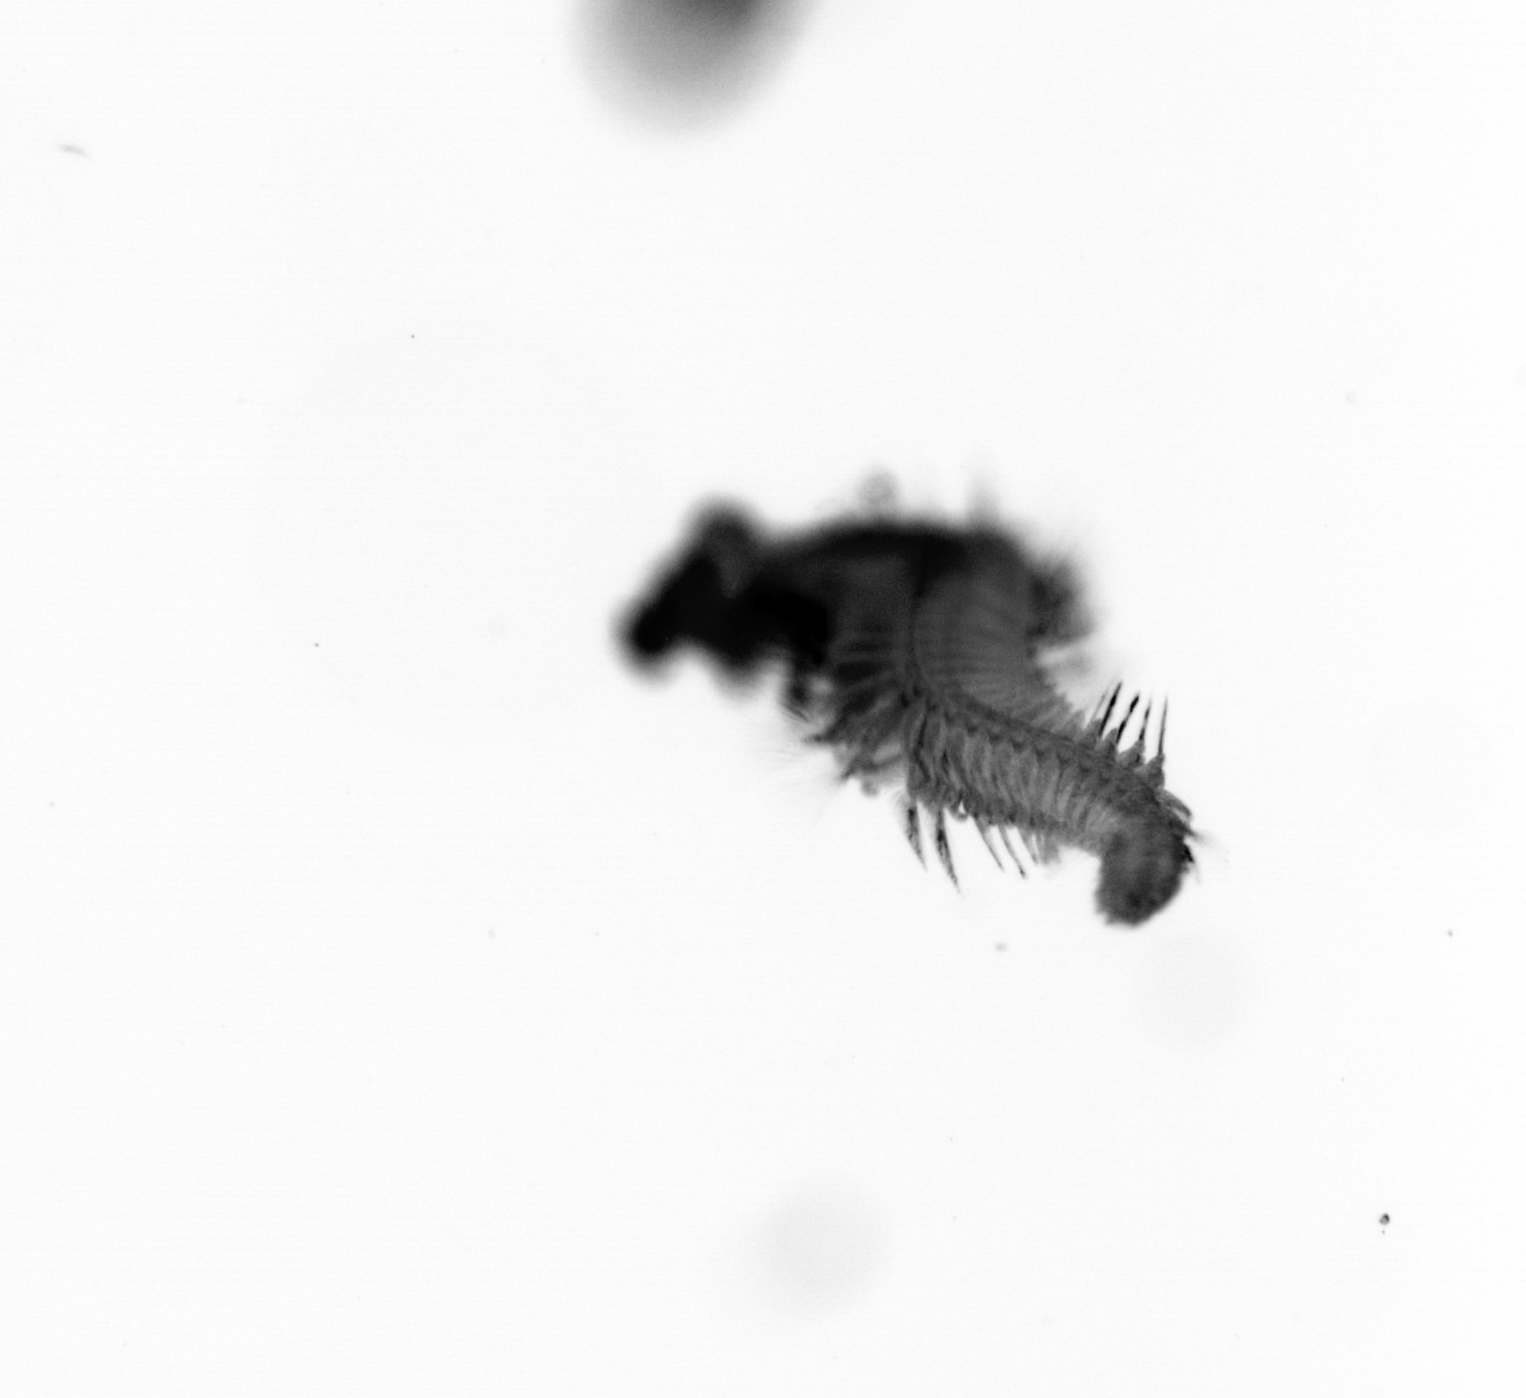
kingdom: Animalia
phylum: Annelida
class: Polychaeta
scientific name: Polychaeta
